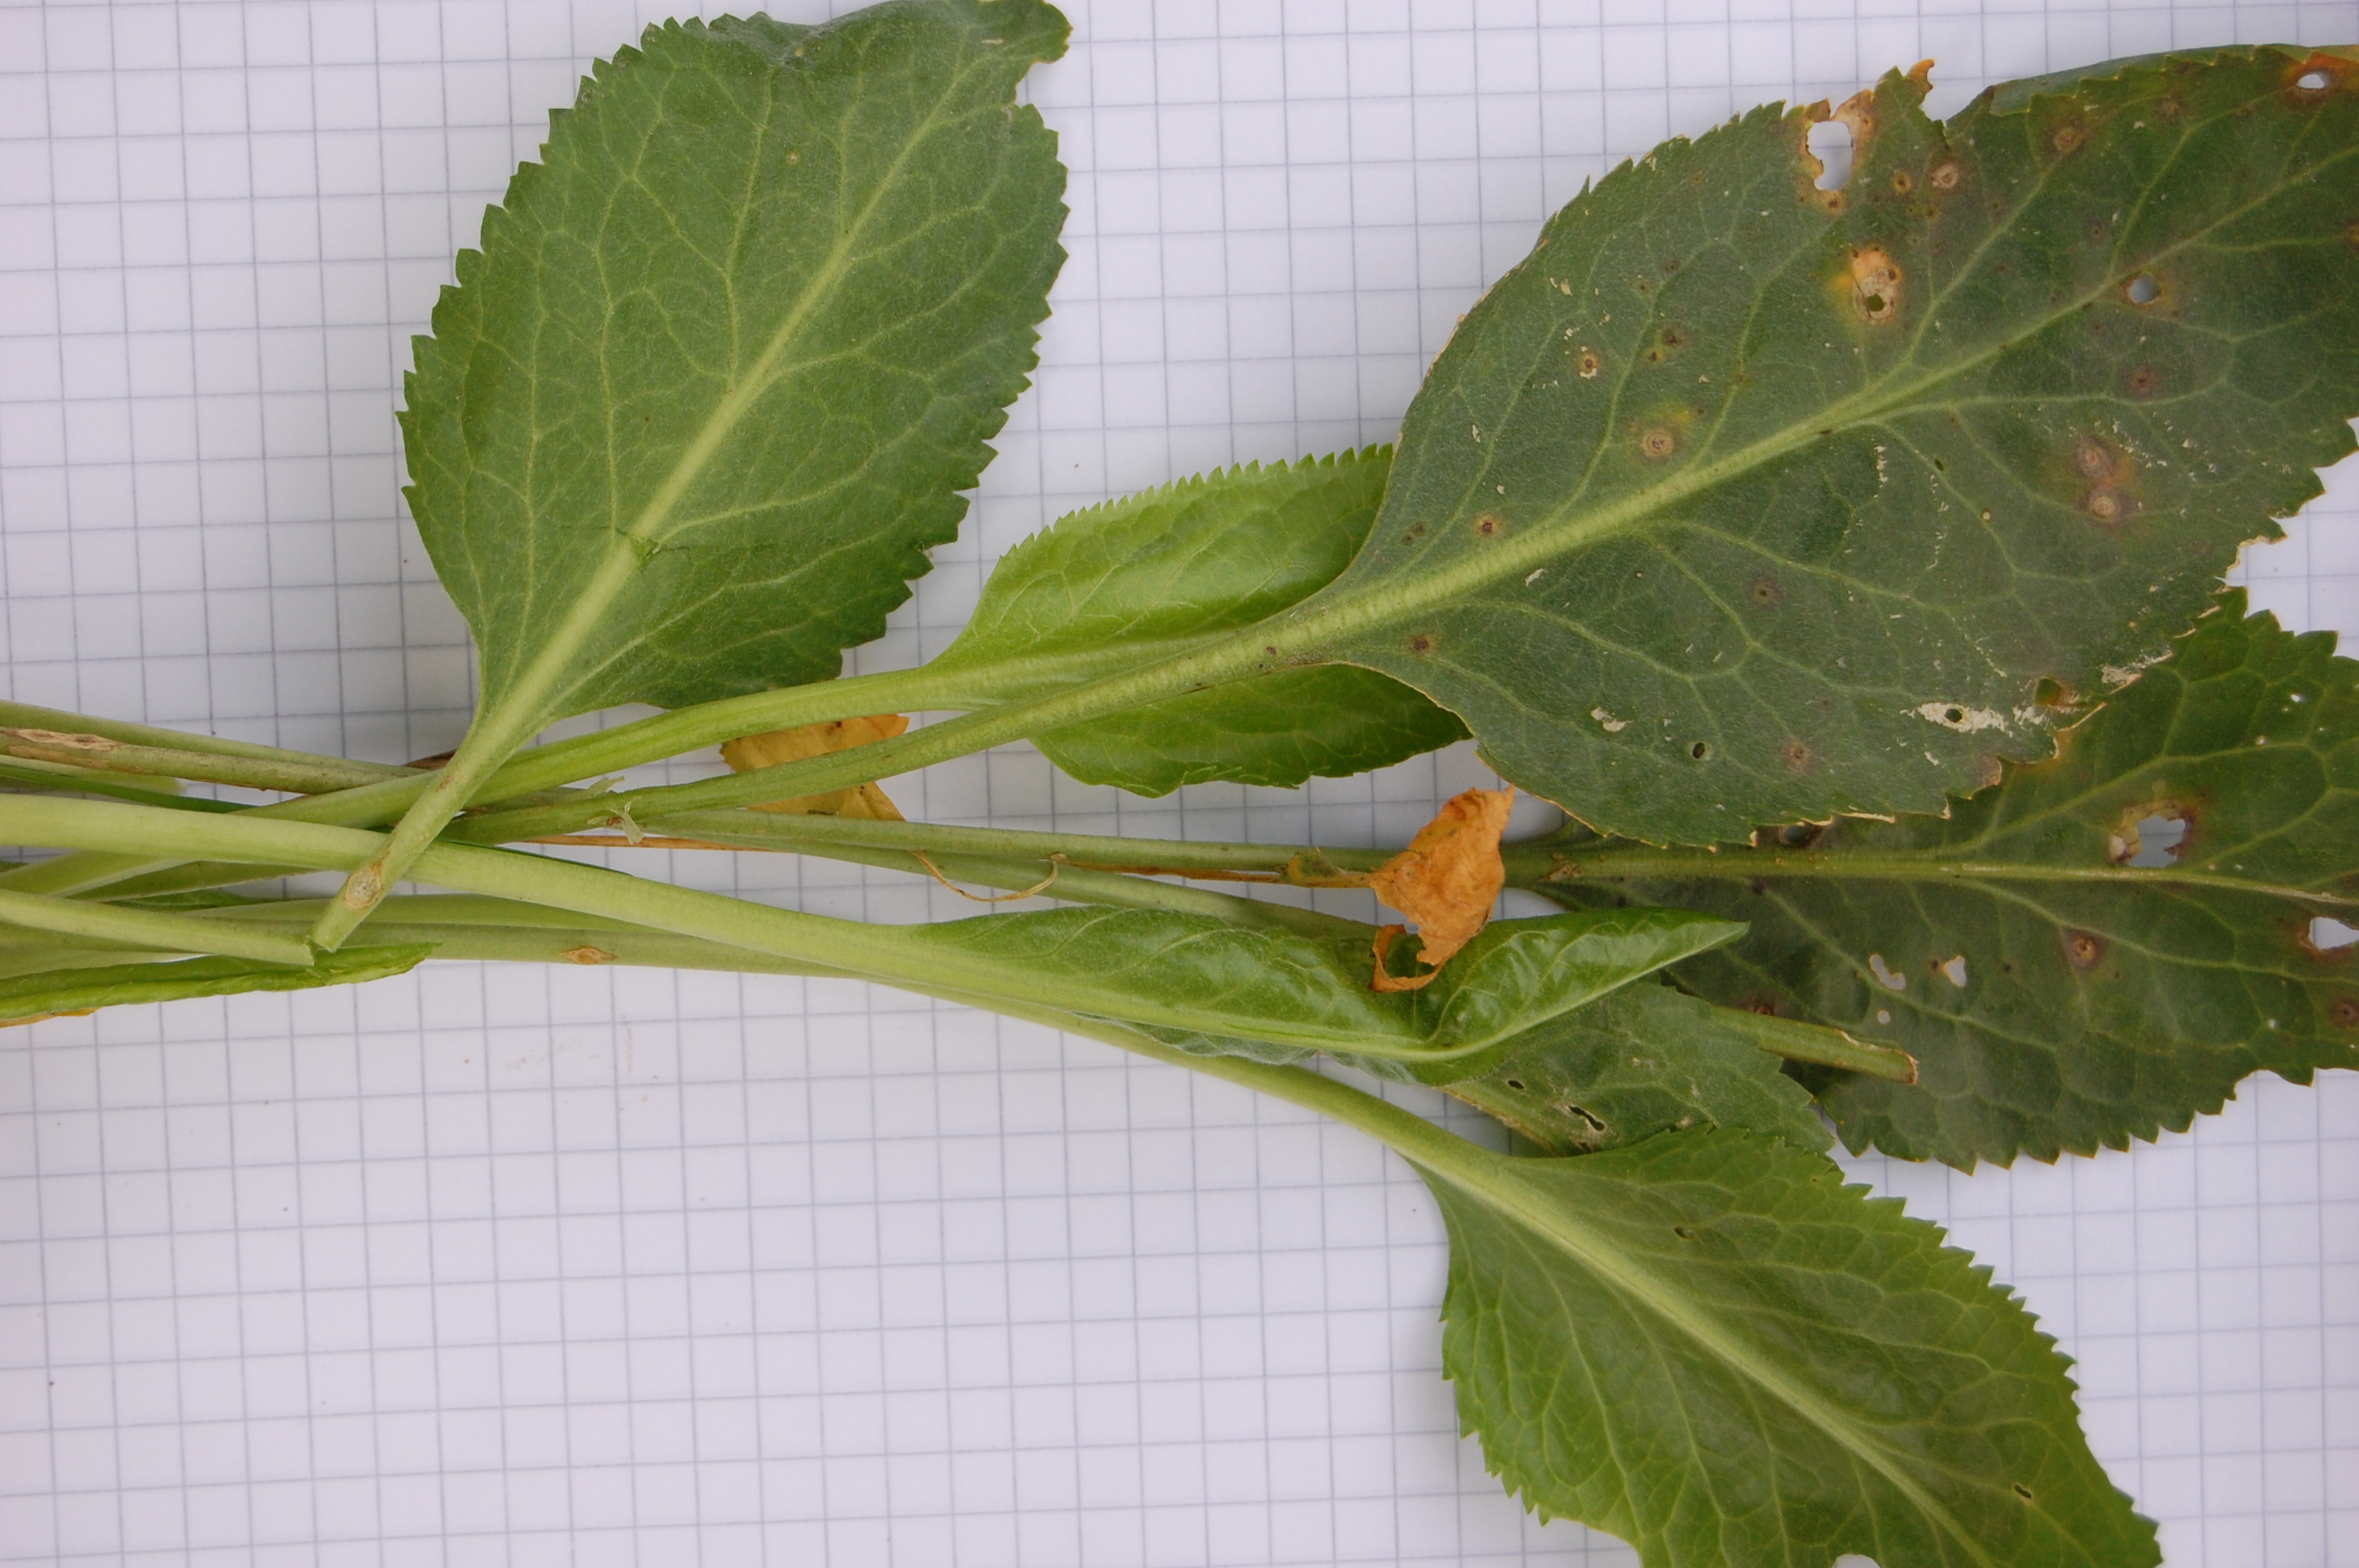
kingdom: Plantae
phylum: Tracheophyta
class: Magnoliopsida
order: Brassicales
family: Brassicaceae
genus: Lepidium
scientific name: Lepidium latifolium
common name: Dittander
